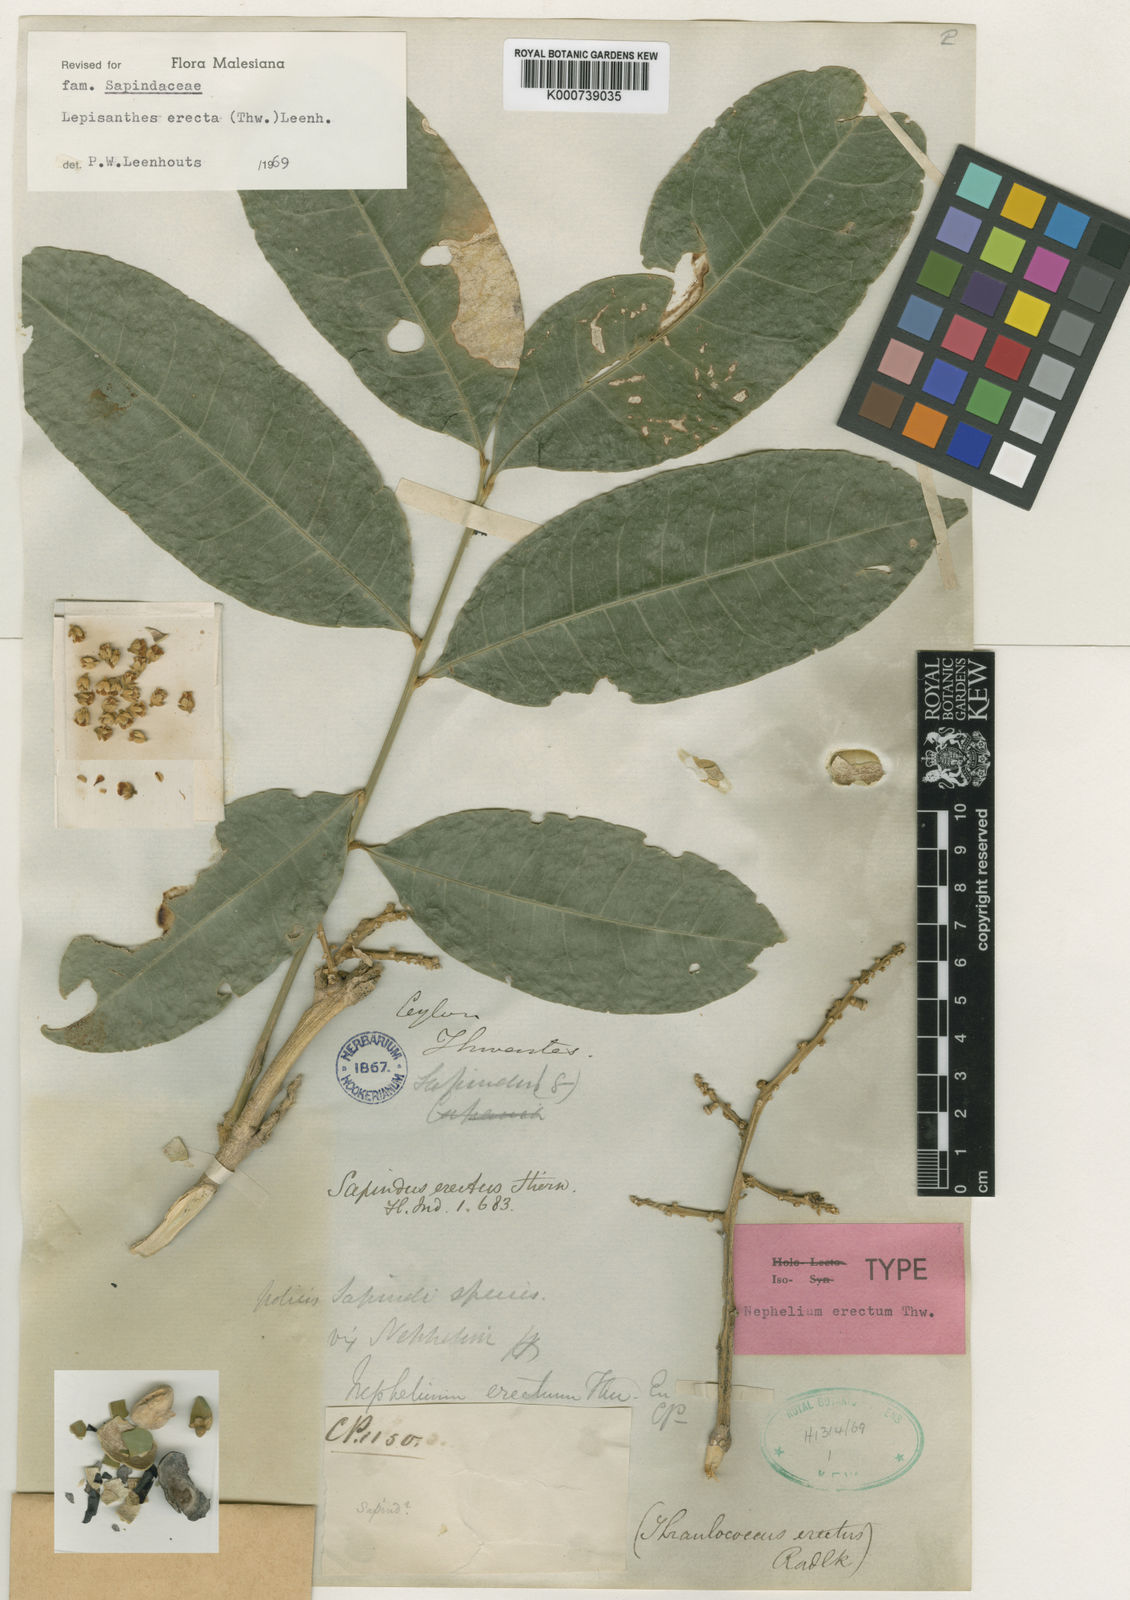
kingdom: Plantae
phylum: Tracheophyta
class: Magnoliopsida
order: Sapindales
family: Sapindaceae
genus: Lepisanthes
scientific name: Lepisanthes erecta
